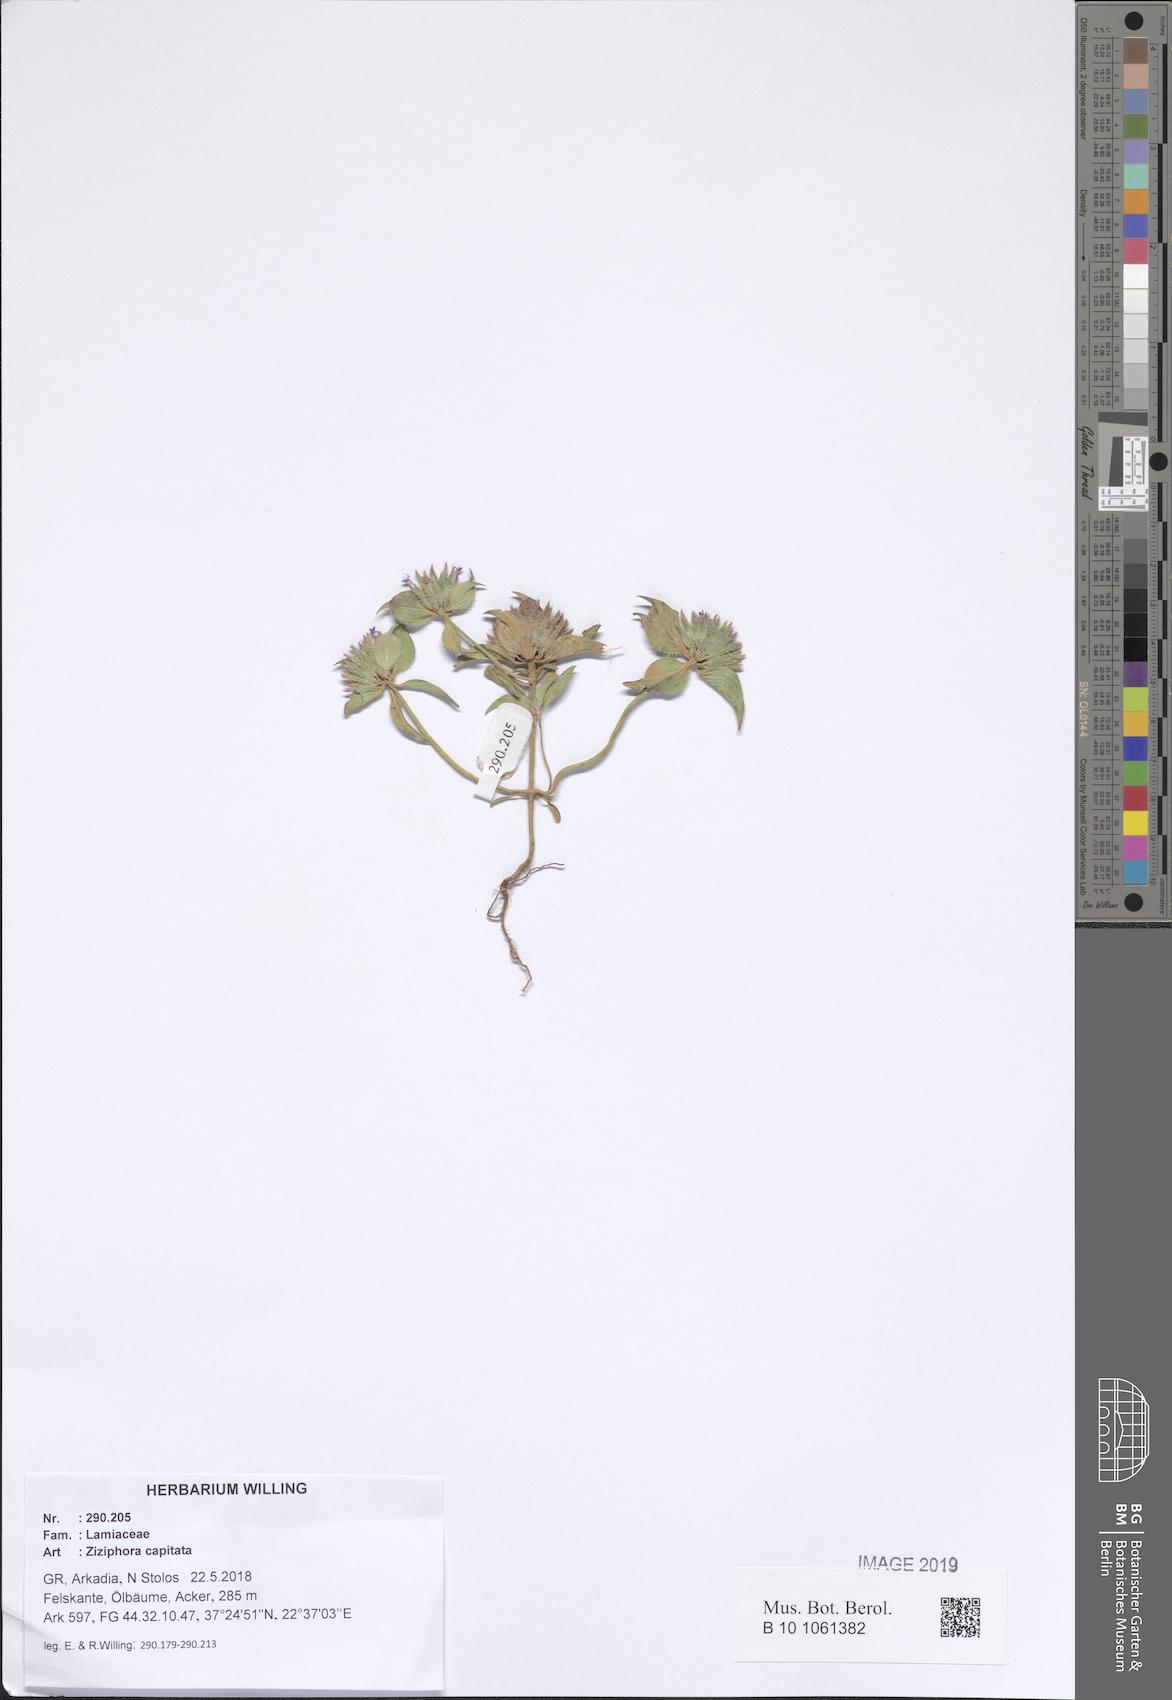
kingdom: Plantae
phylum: Tracheophyta
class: Magnoliopsida
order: Lamiales
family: Lamiaceae
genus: Ziziphora
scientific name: Ziziphora capitata
